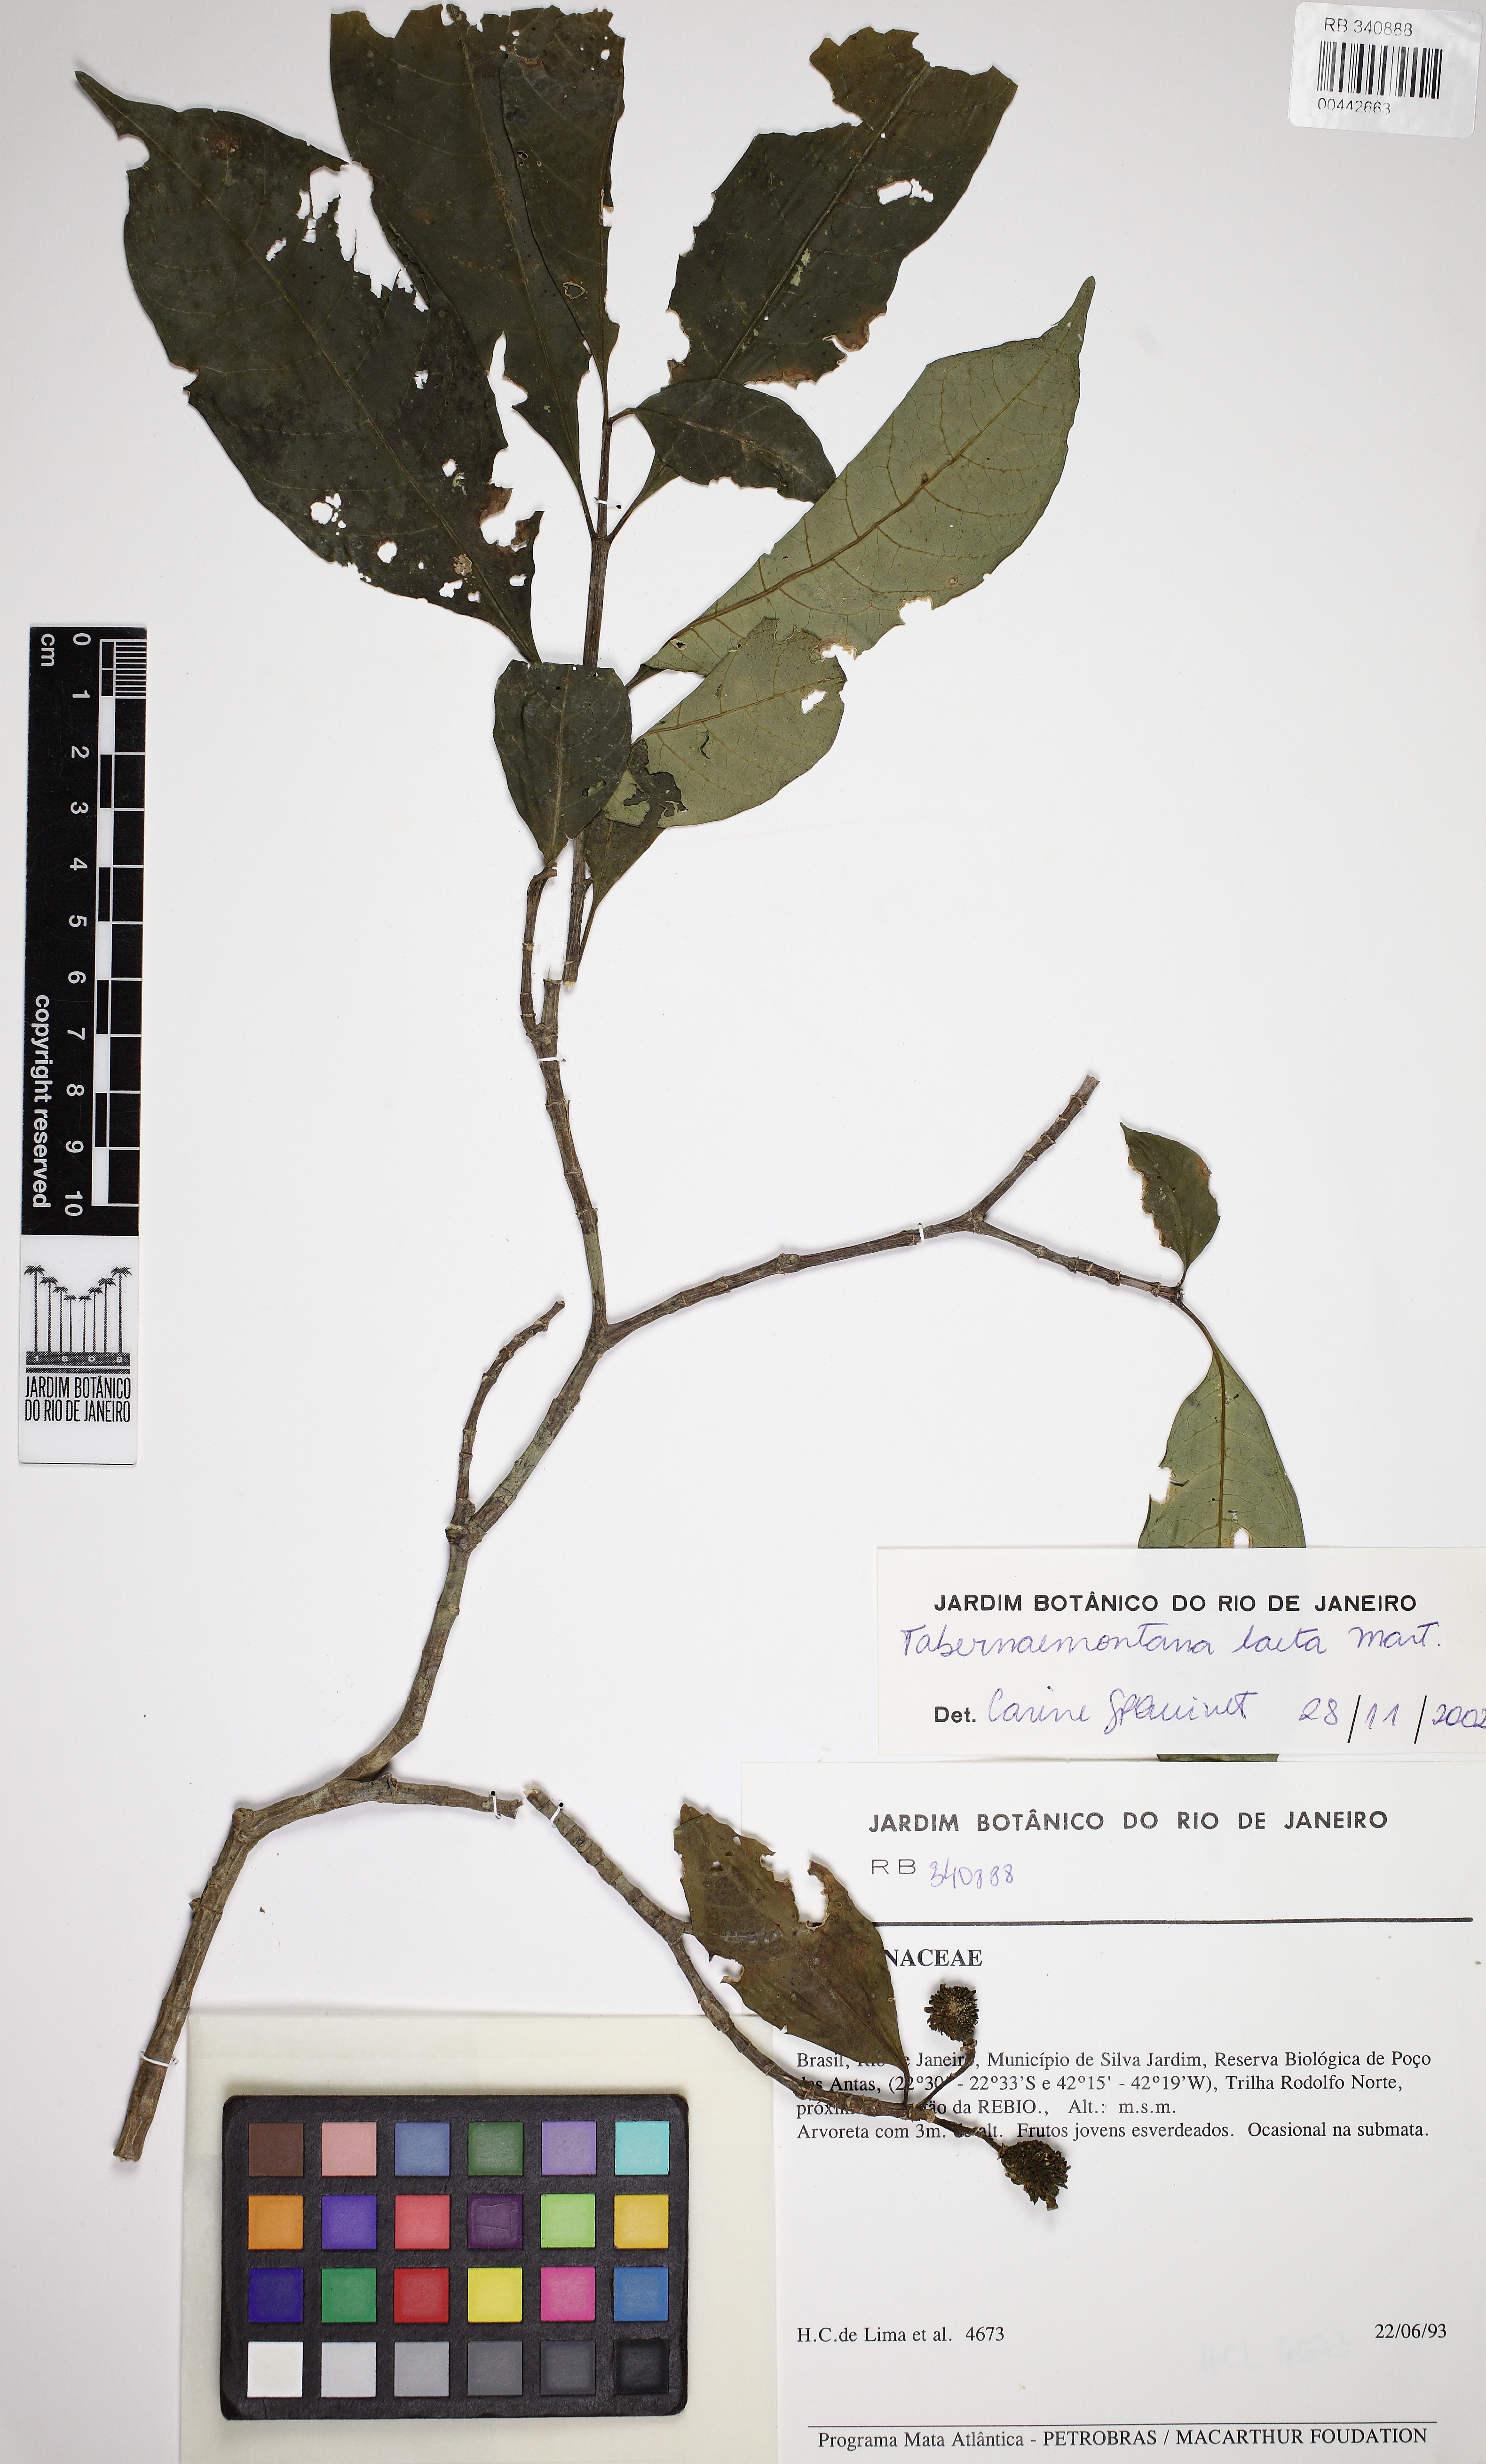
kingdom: Plantae
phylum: Tracheophyta
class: Magnoliopsida
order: Gentianales
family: Apocynaceae
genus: Tabernaemontana
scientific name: Tabernaemontana laeta
